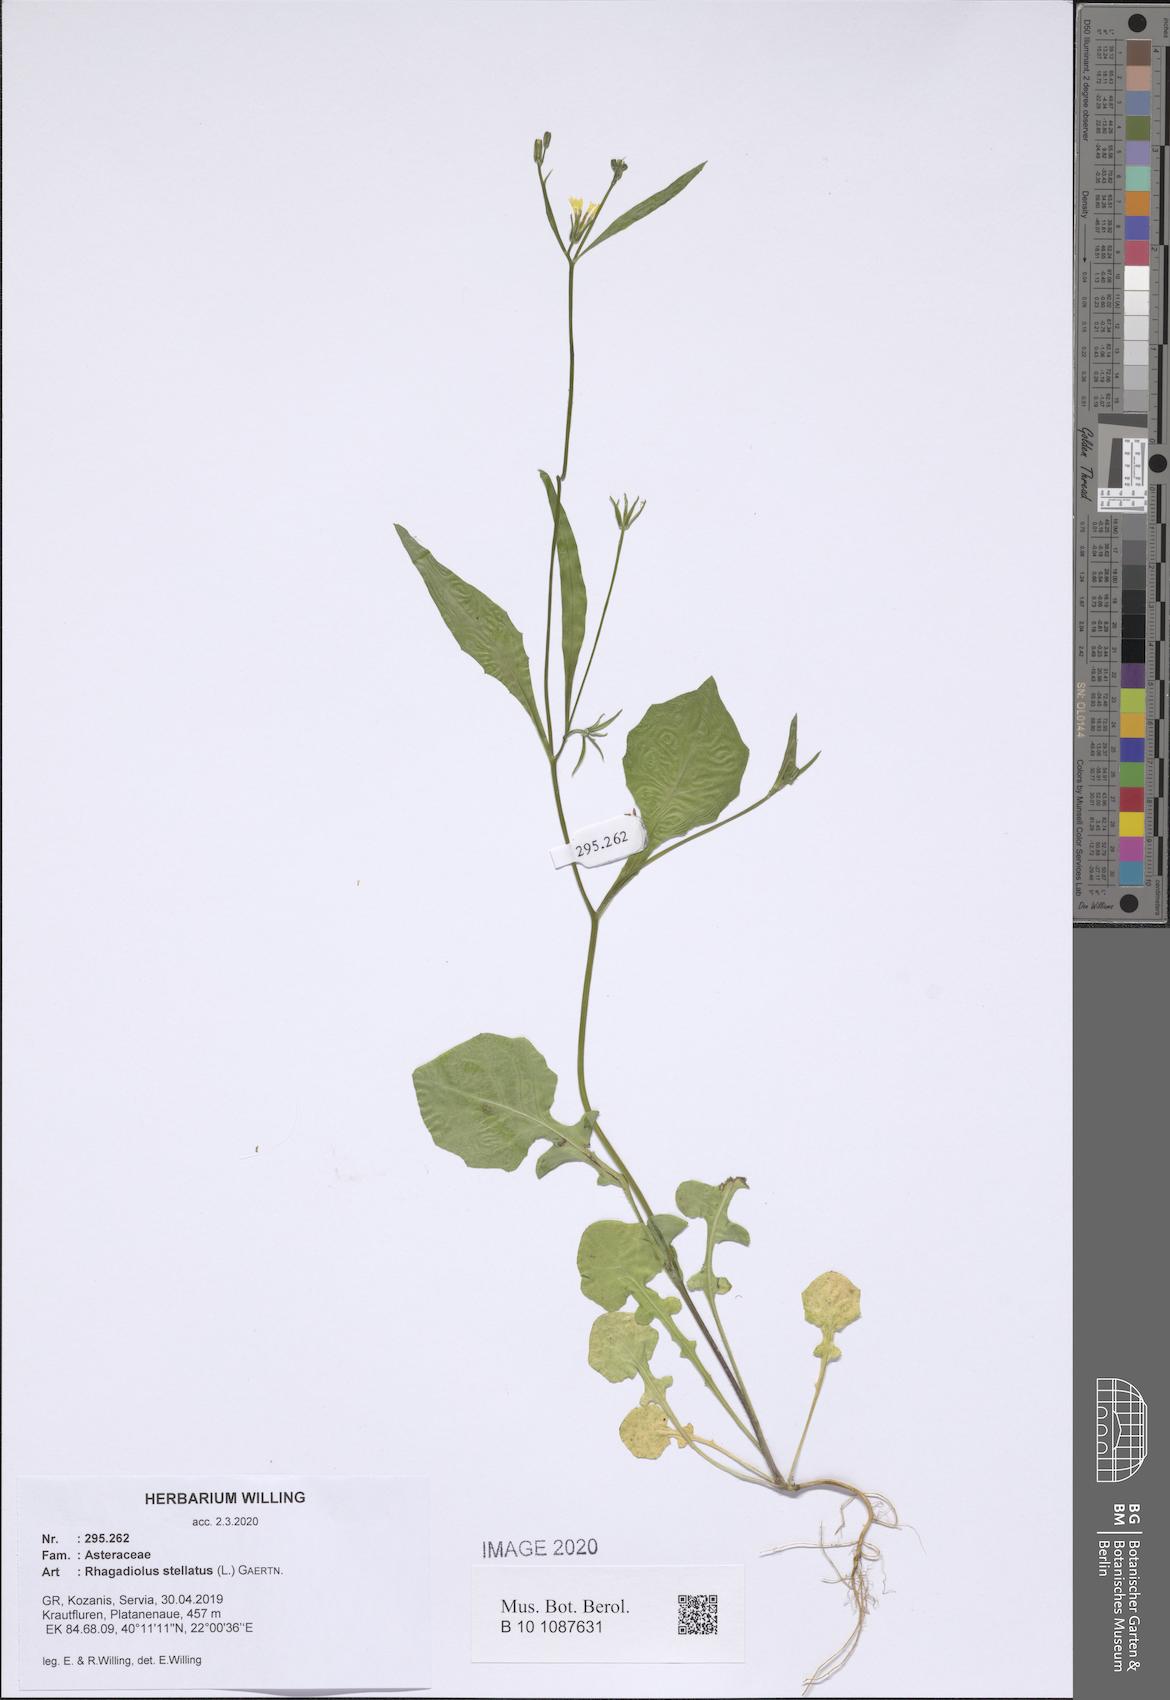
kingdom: Plantae
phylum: Tracheophyta
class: Magnoliopsida
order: Asterales
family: Asteraceae
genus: Rhagadiolus
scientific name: Rhagadiolus stellatus
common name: Star hawkbit
